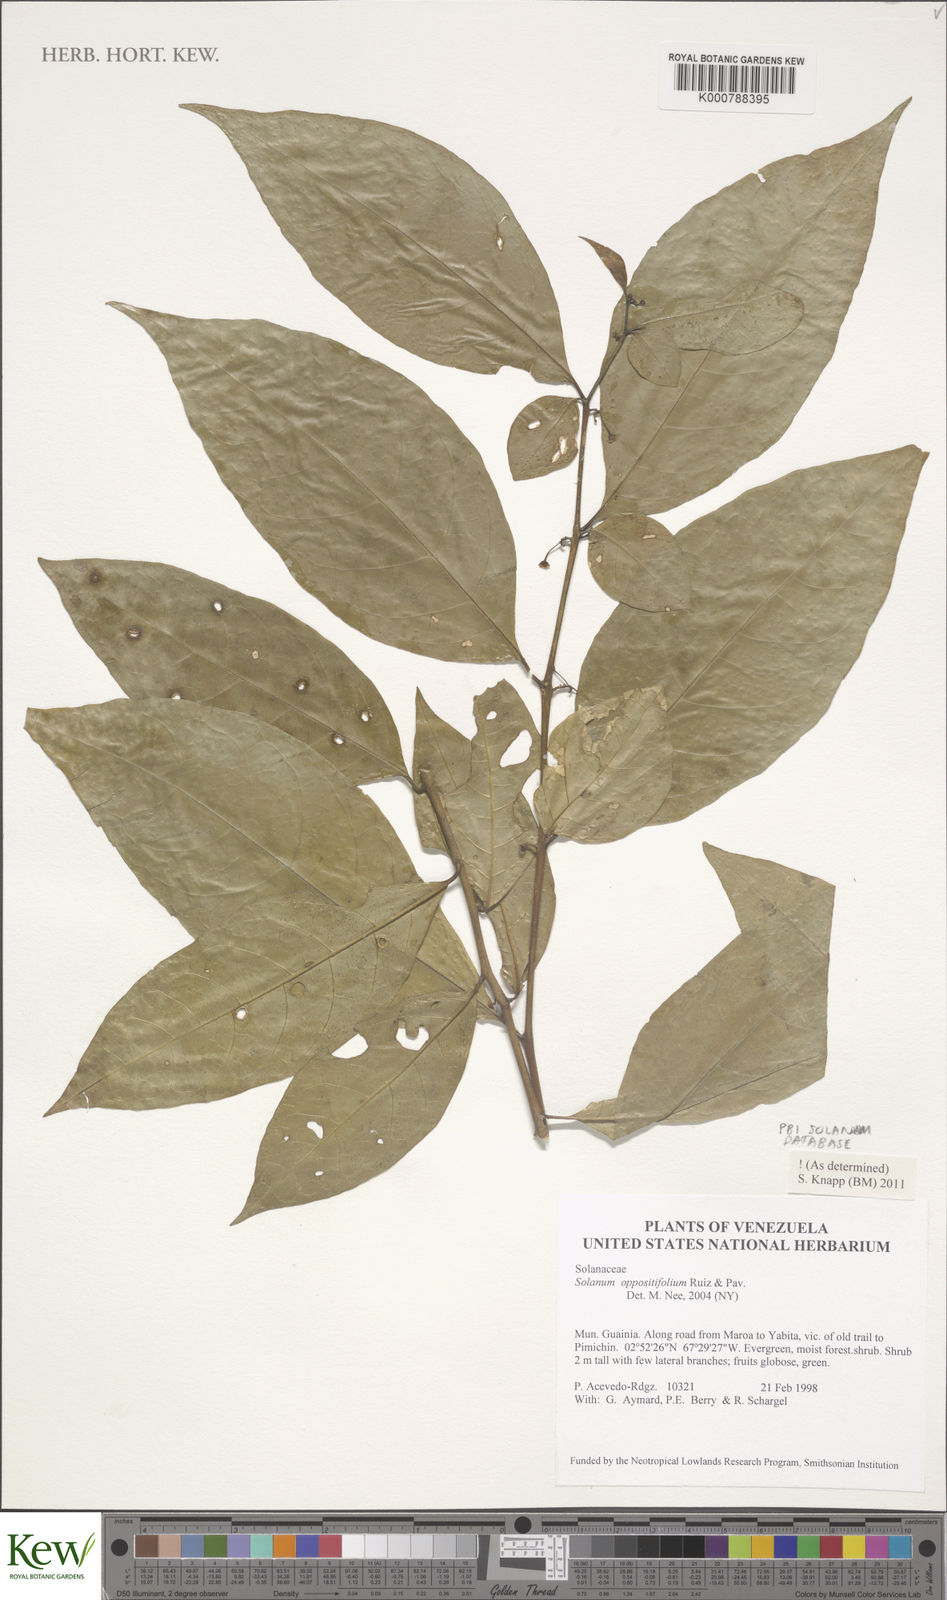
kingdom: Plantae
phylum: Tracheophyta
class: Magnoliopsida
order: Solanales
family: Solanaceae
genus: Solanum
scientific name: Solanum oppositifolium
